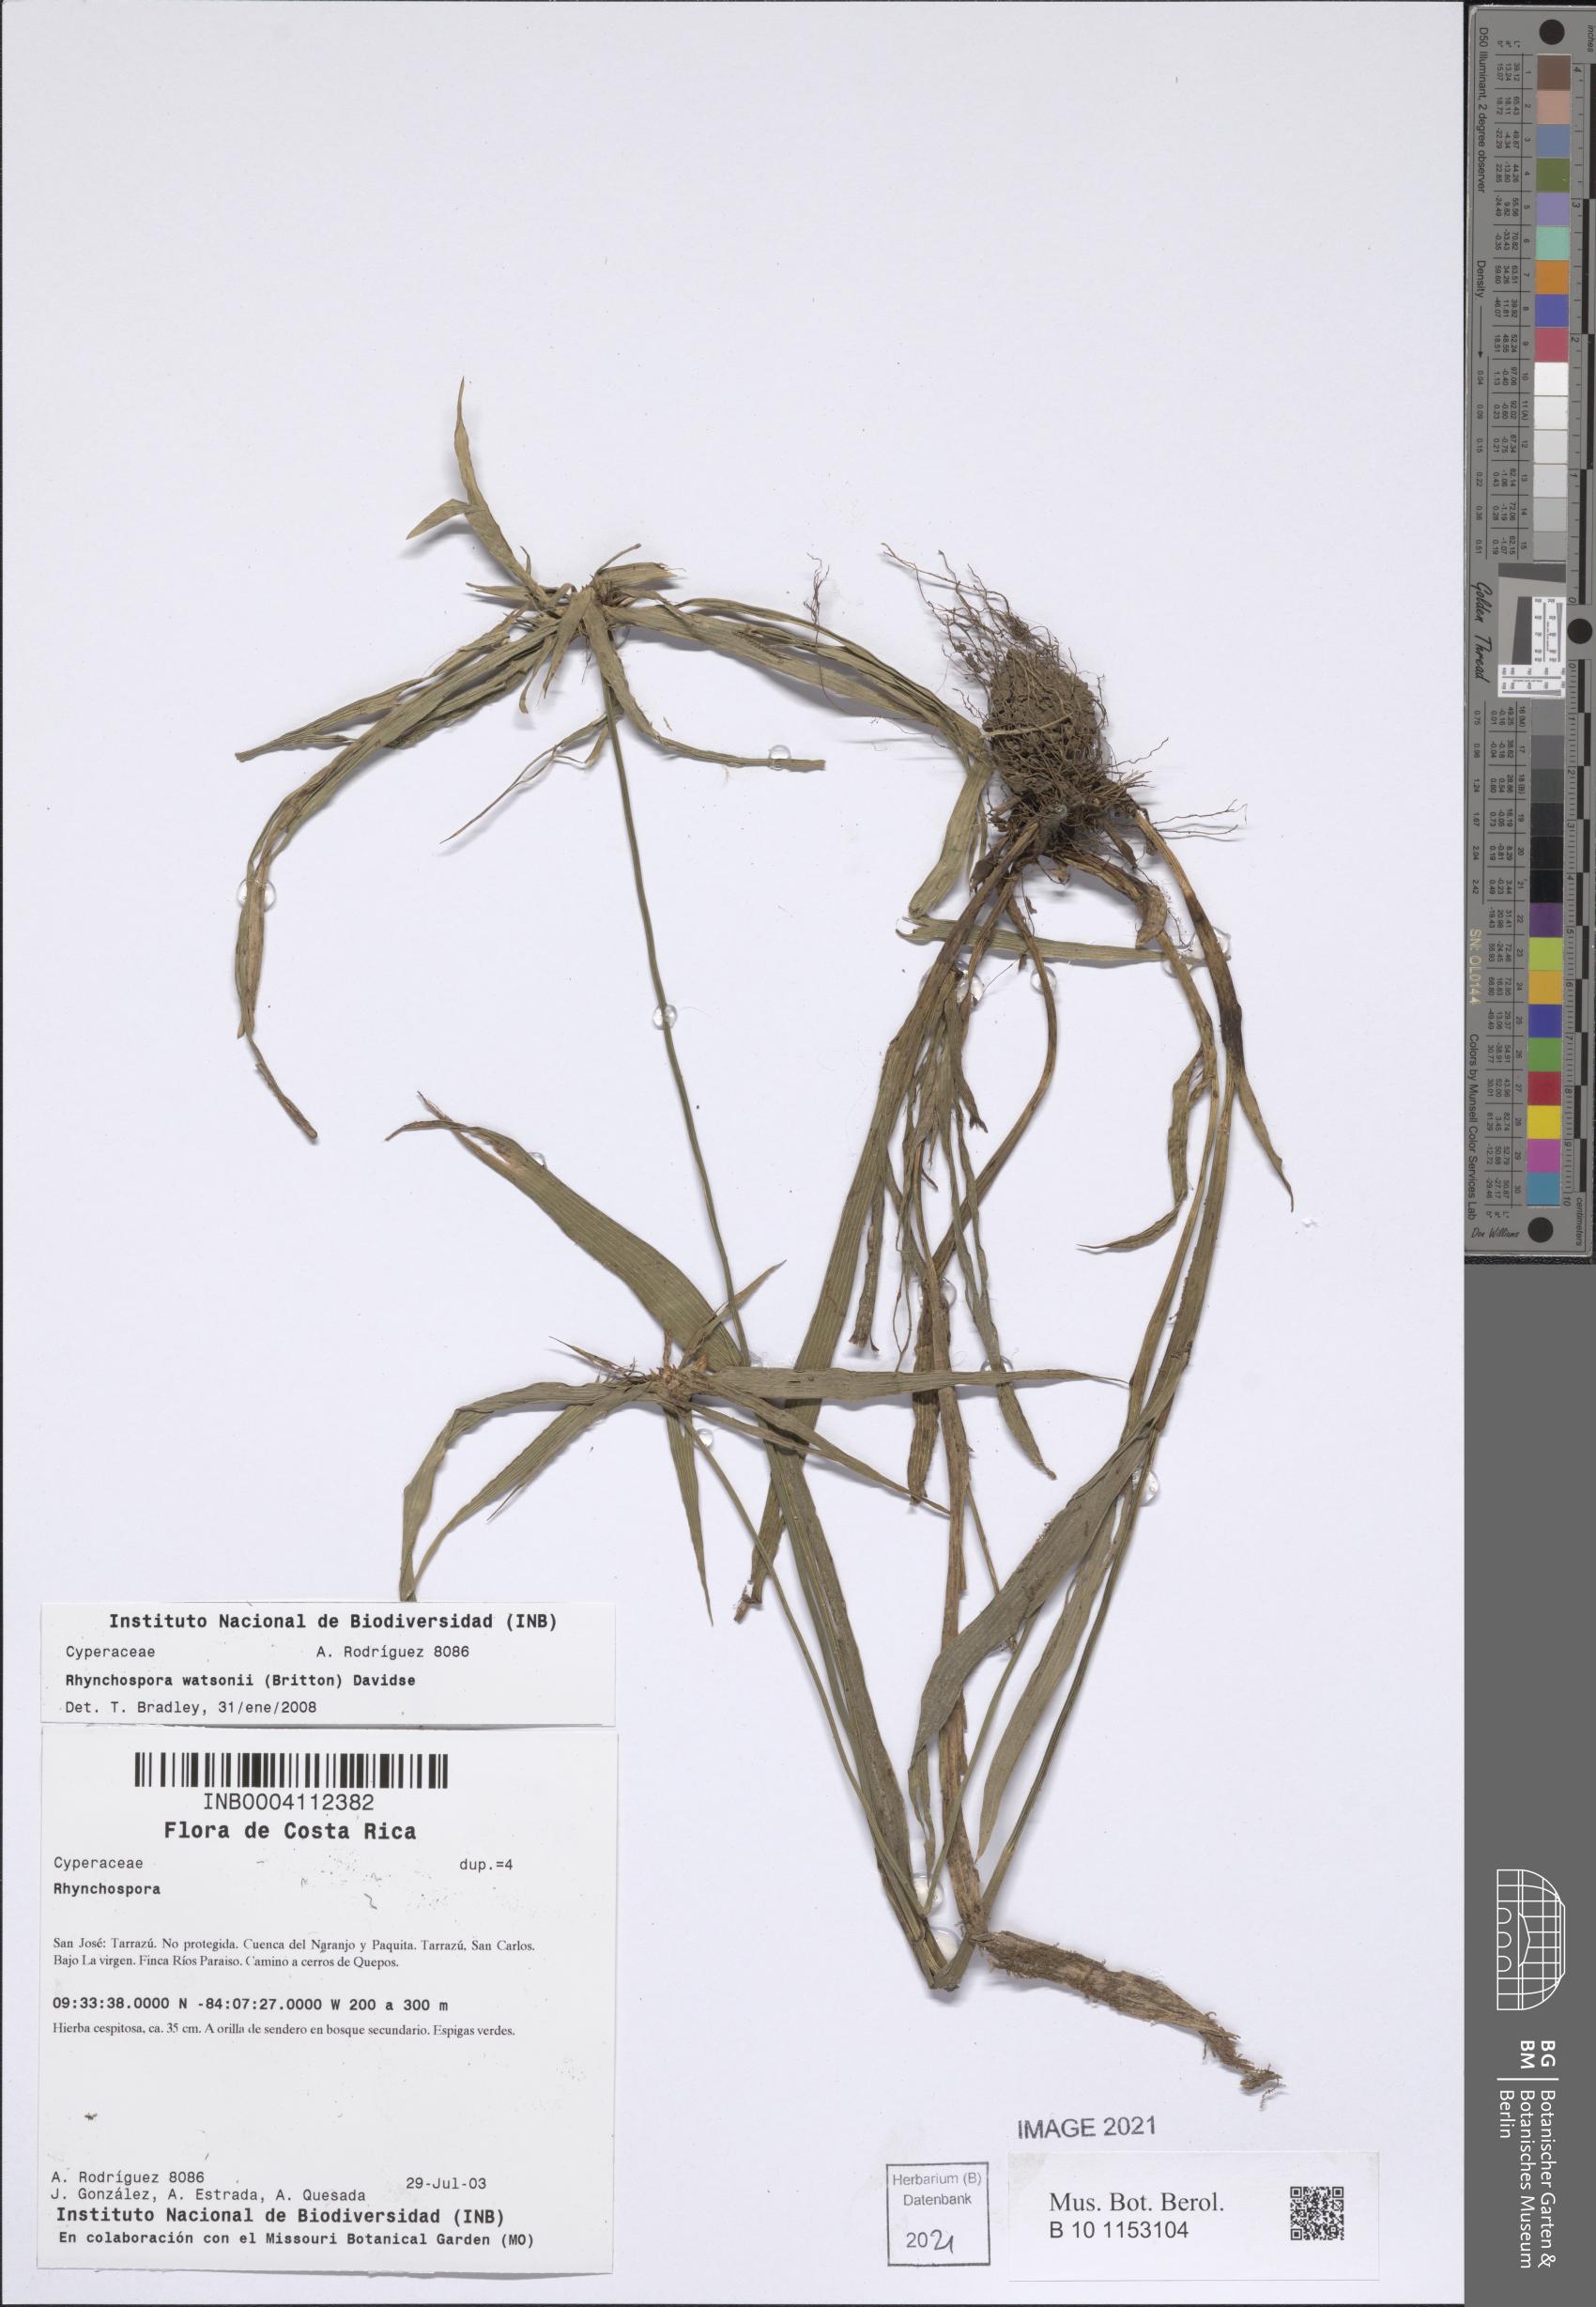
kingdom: Plantae
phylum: Tracheophyta
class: Liliopsida
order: Poales
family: Cyperaceae
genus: Rhynchospora
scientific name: Rhynchospora watsonii
